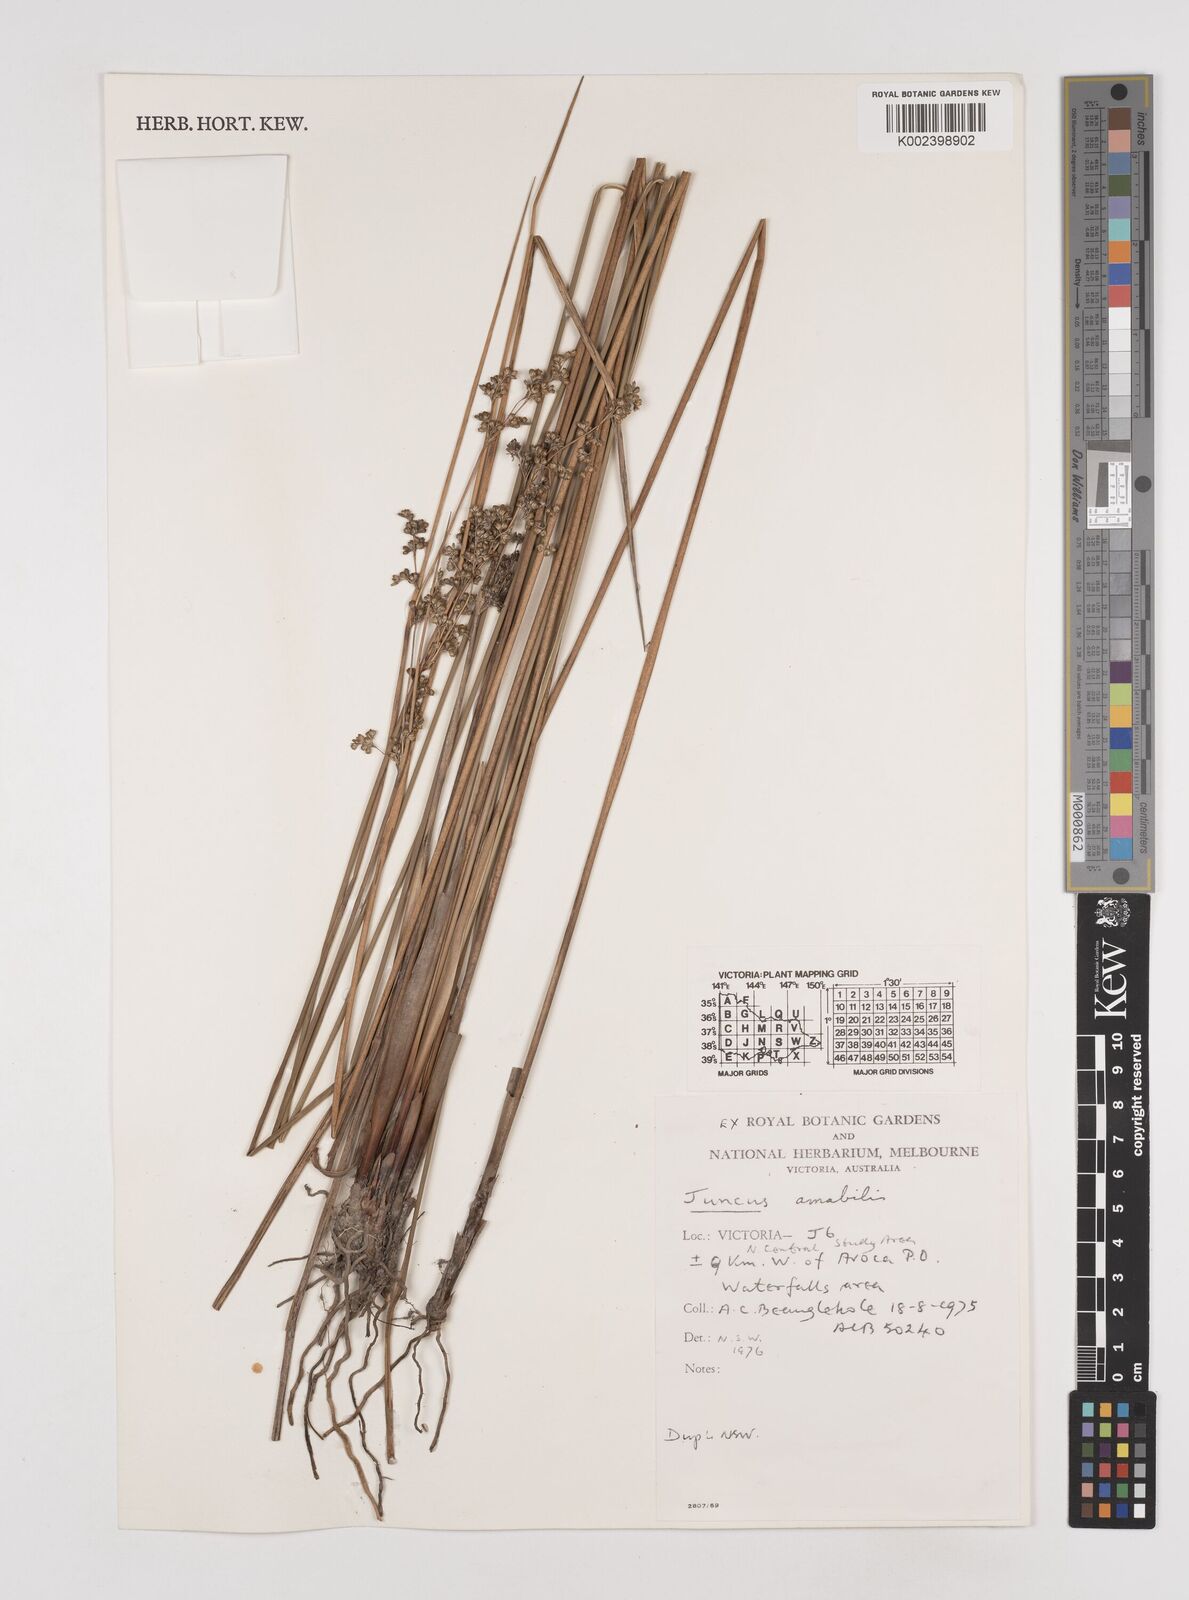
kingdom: Plantae
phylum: Tracheophyta
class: Liliopsida
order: Poales
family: Juncaceae
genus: Juncus
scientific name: Juncus amabilis
